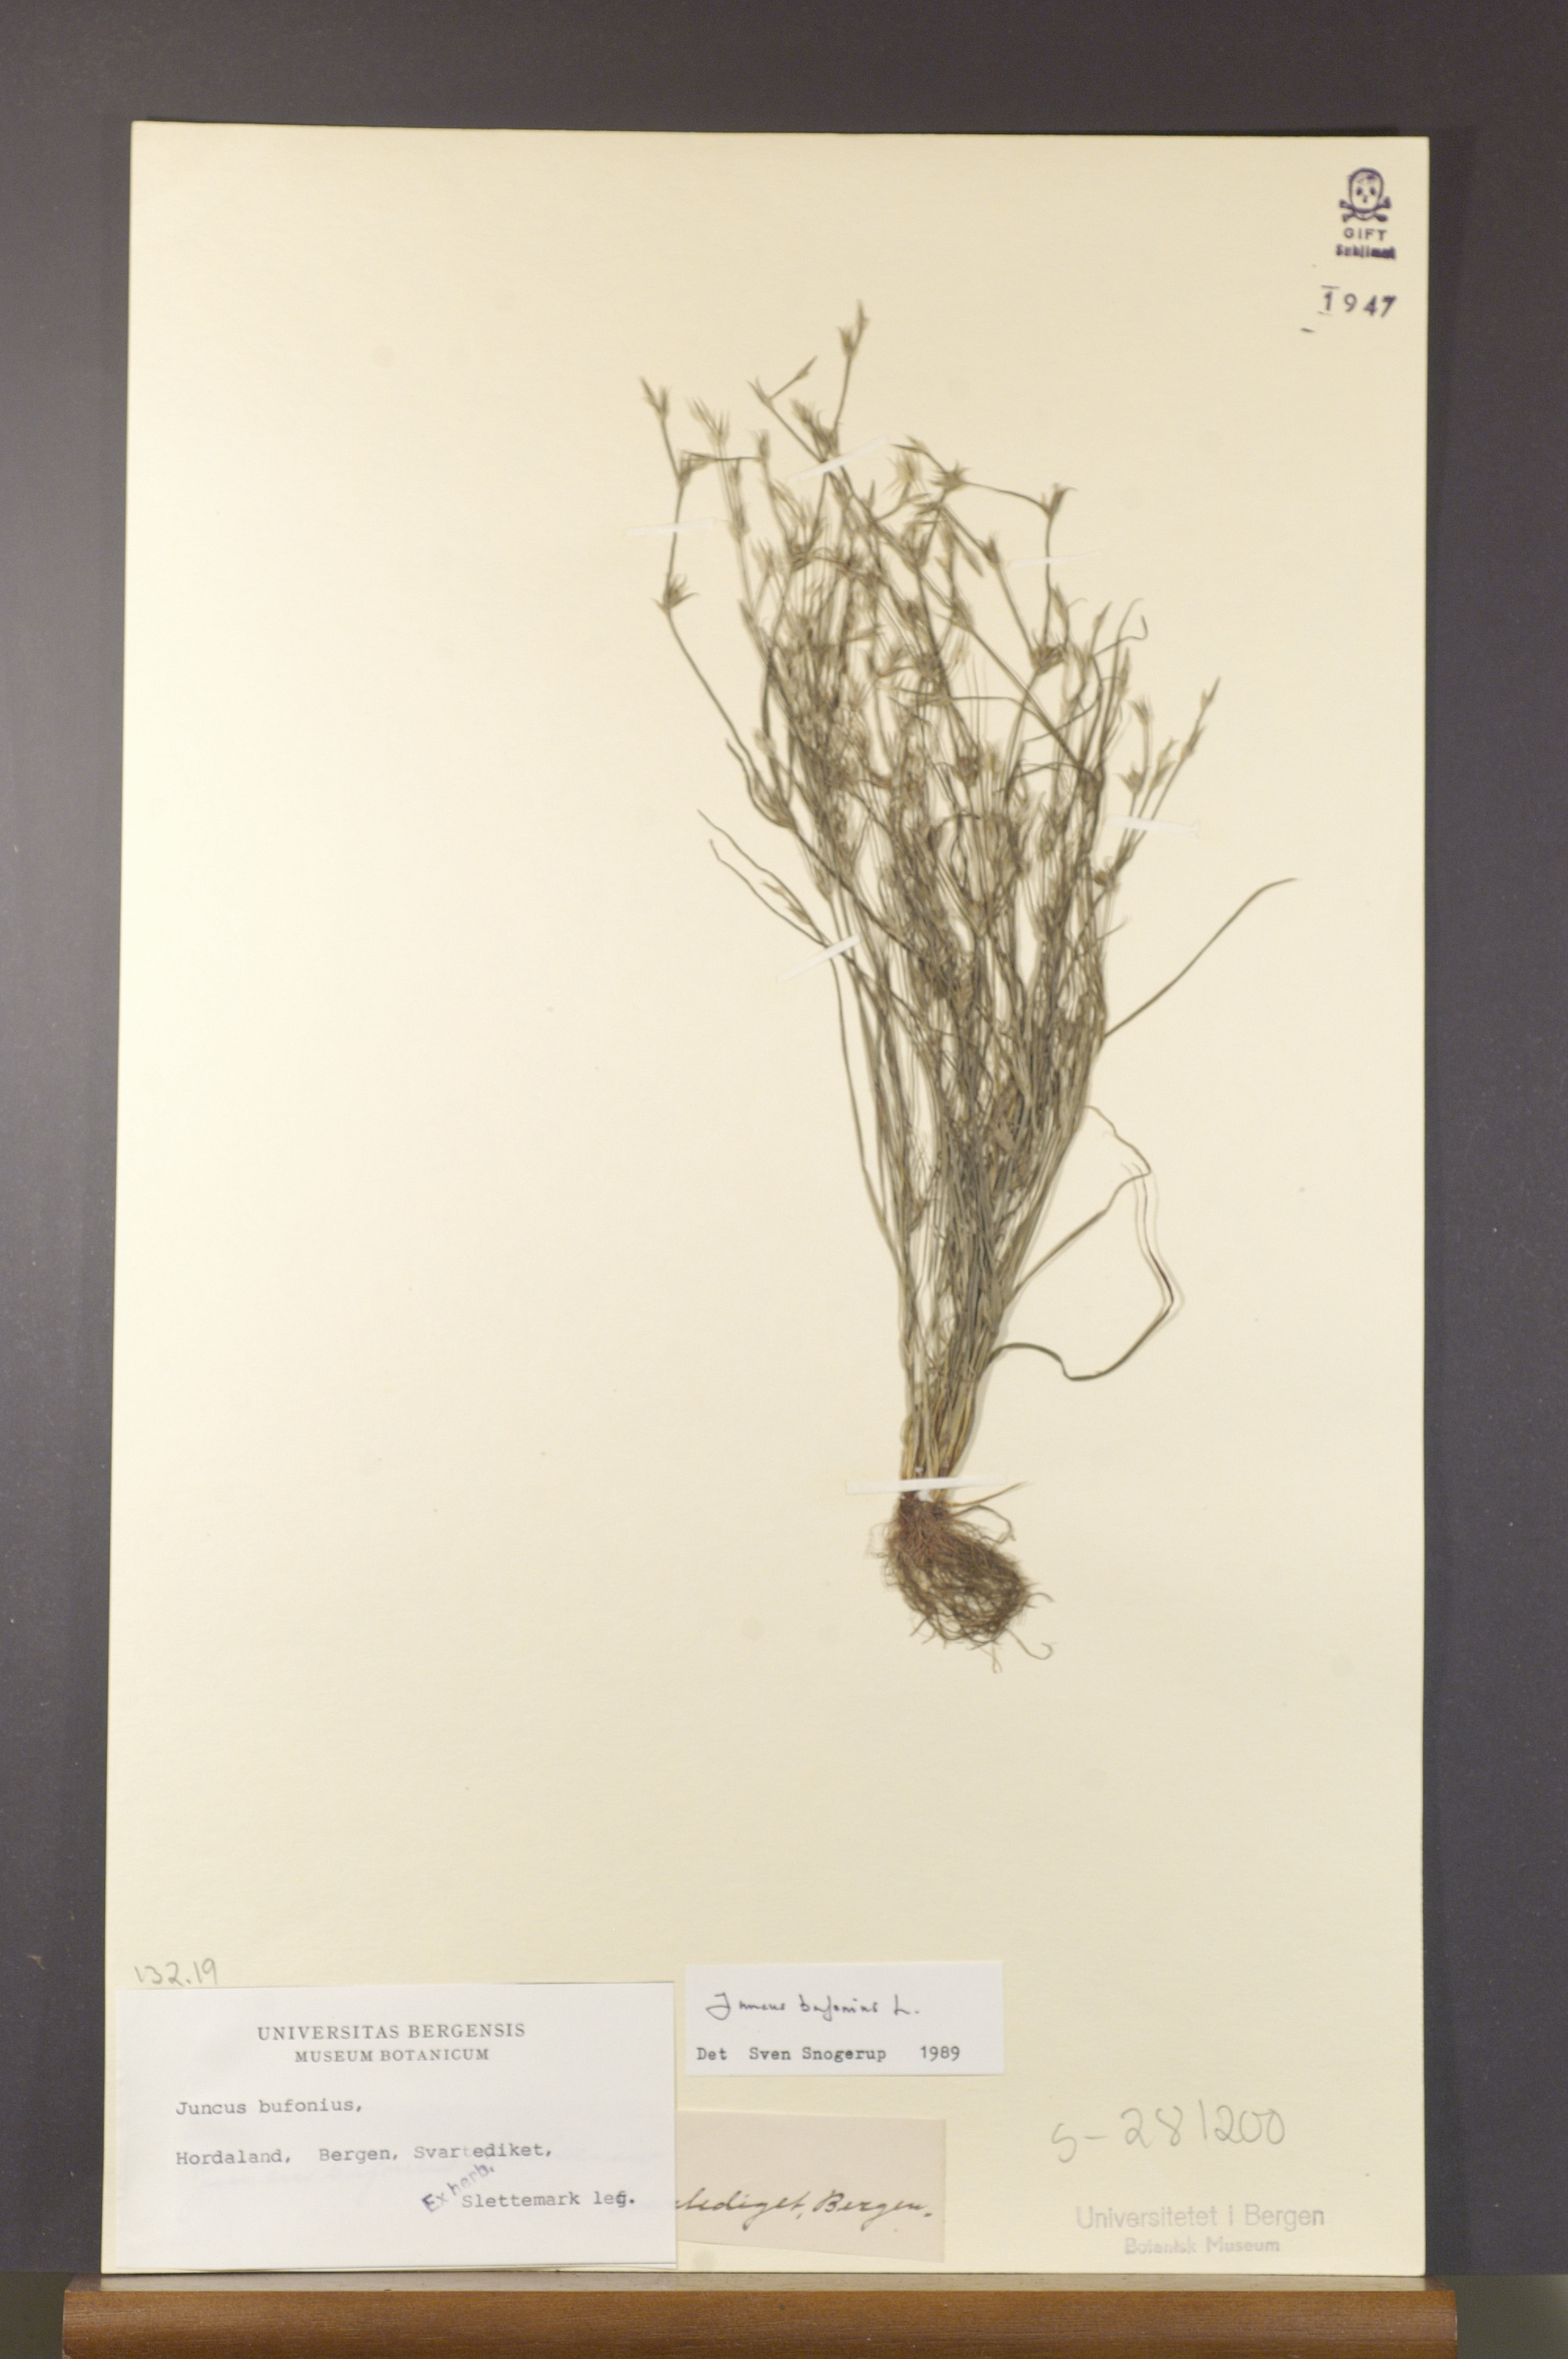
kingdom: Plantae
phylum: Tracheophyta
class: Liliopsida
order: Poales
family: Juncaceae
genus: Juncus
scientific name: Juncus bufonius
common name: Toad rush
